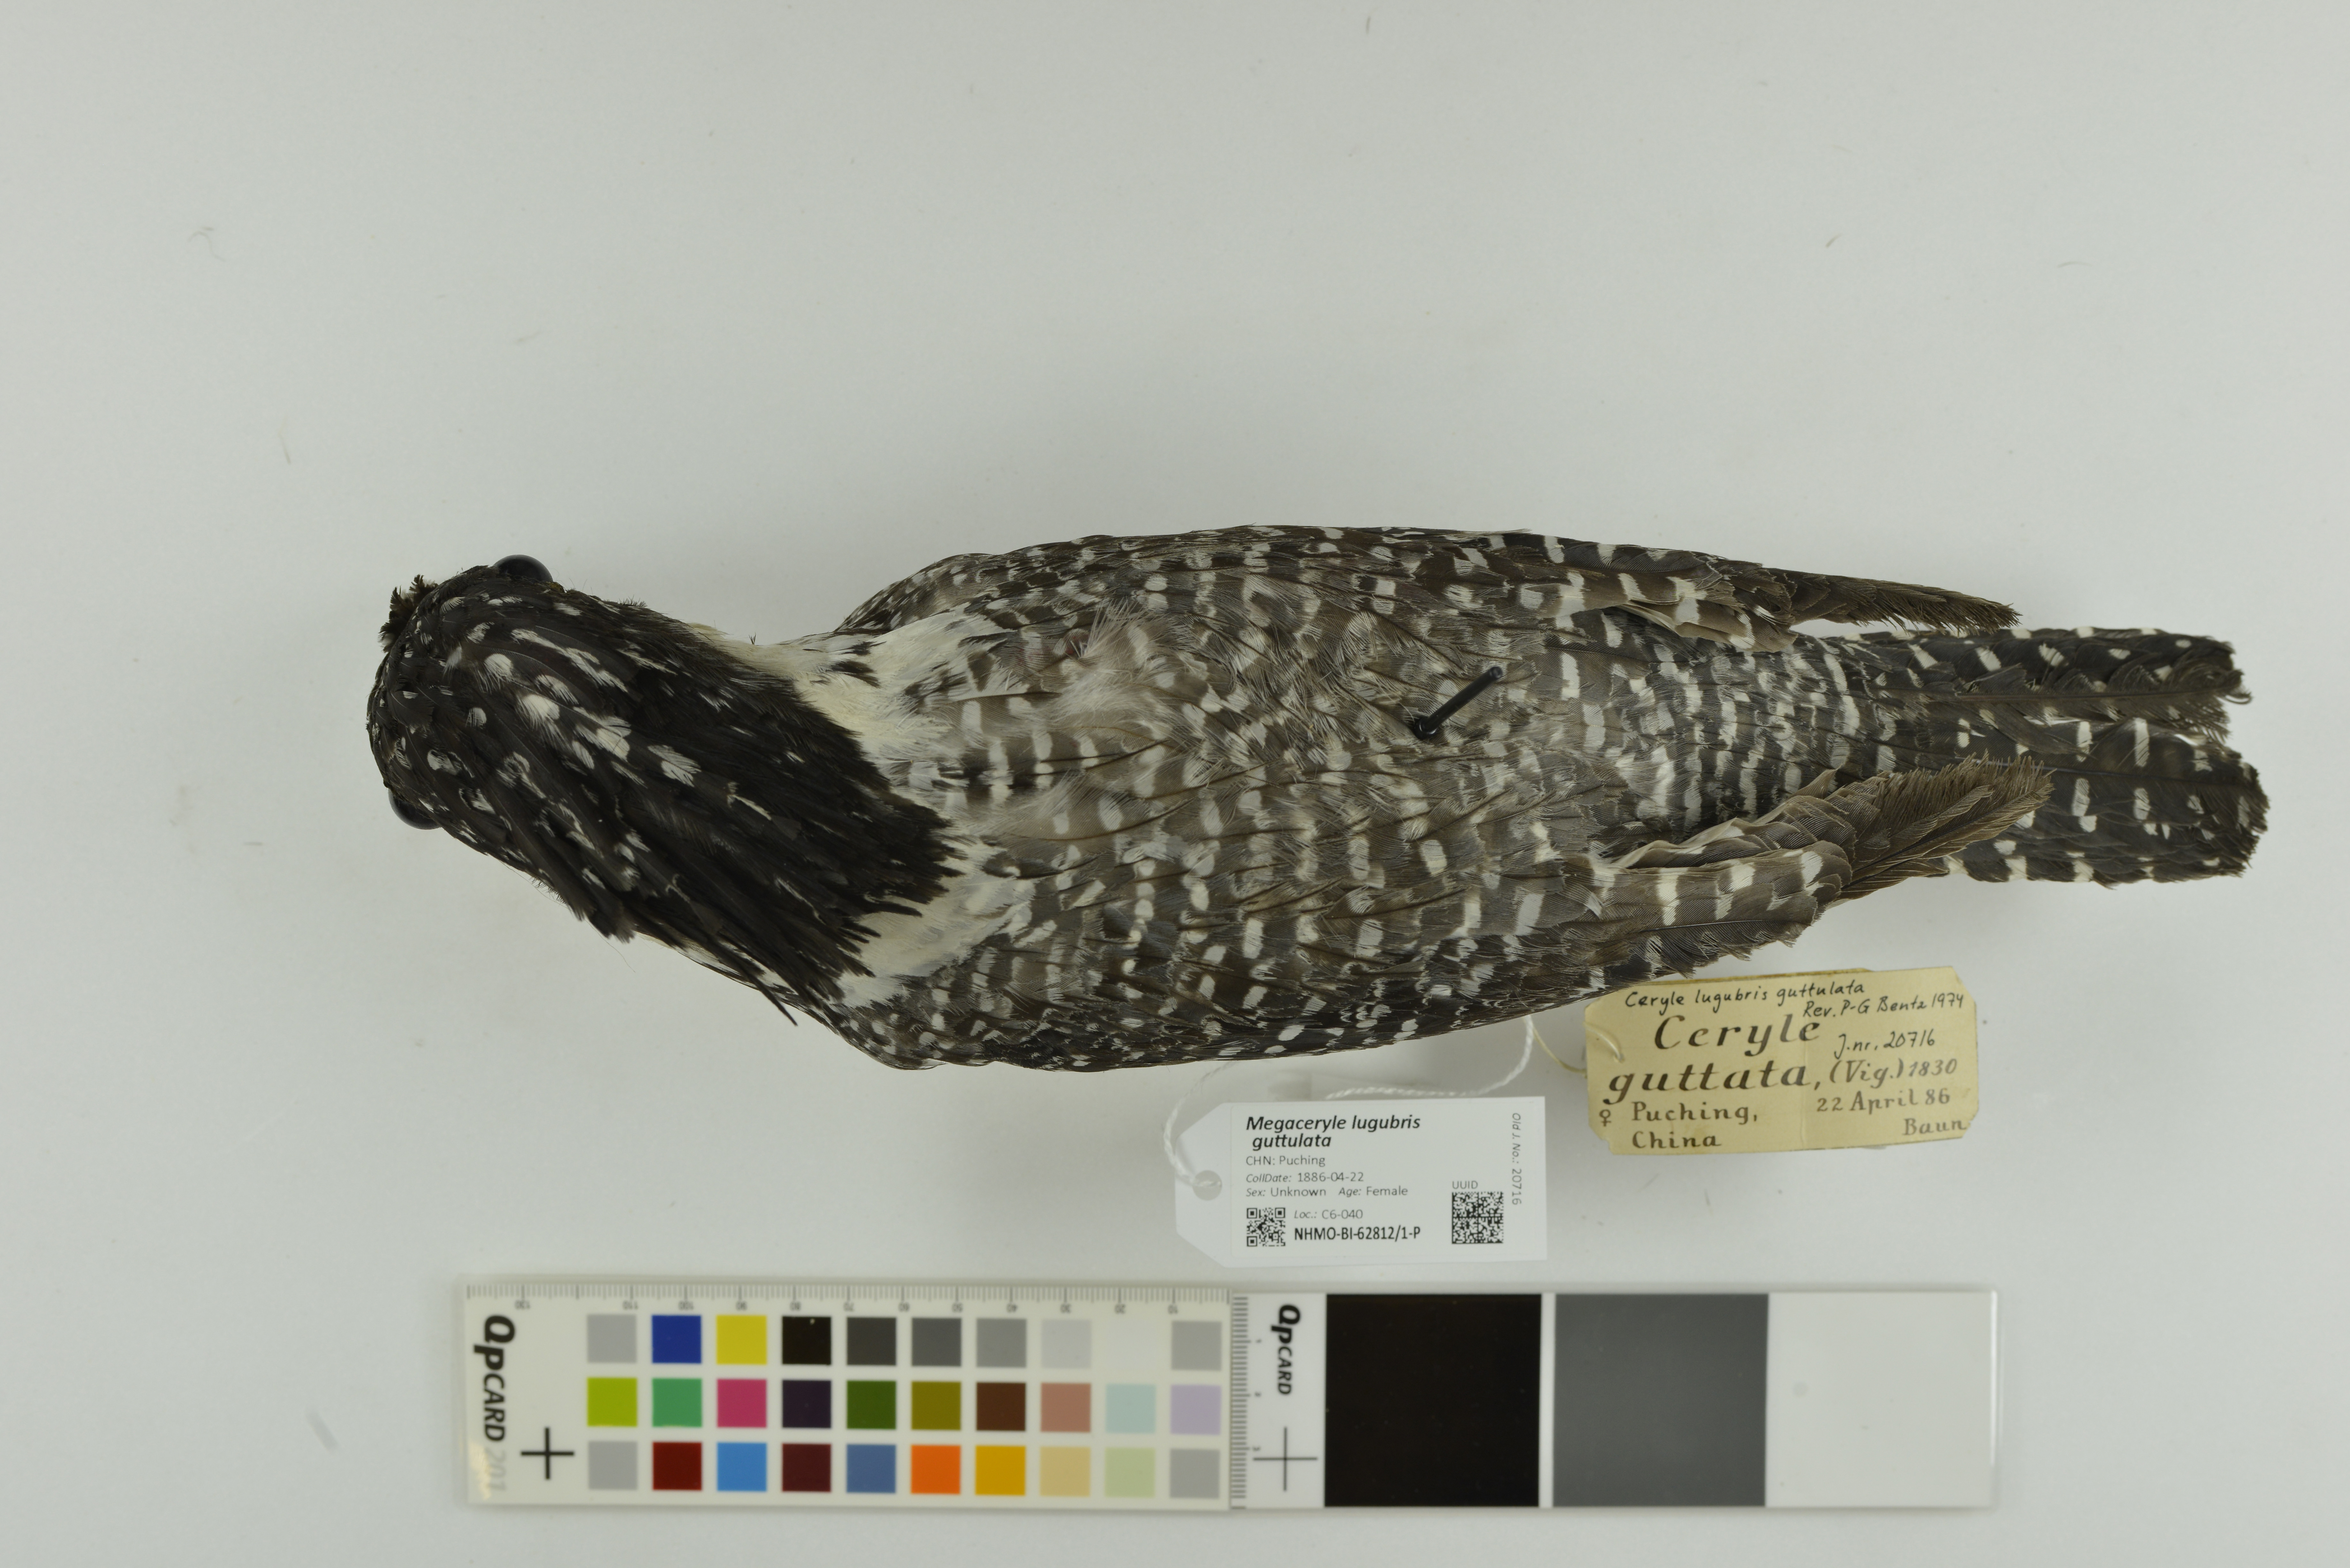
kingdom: Animalia
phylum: Chordata
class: Aves
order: Coraciiformes
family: Alcedinidae
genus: Megaceryle
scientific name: Megaceryle lugubris
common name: Crested kingfisher
